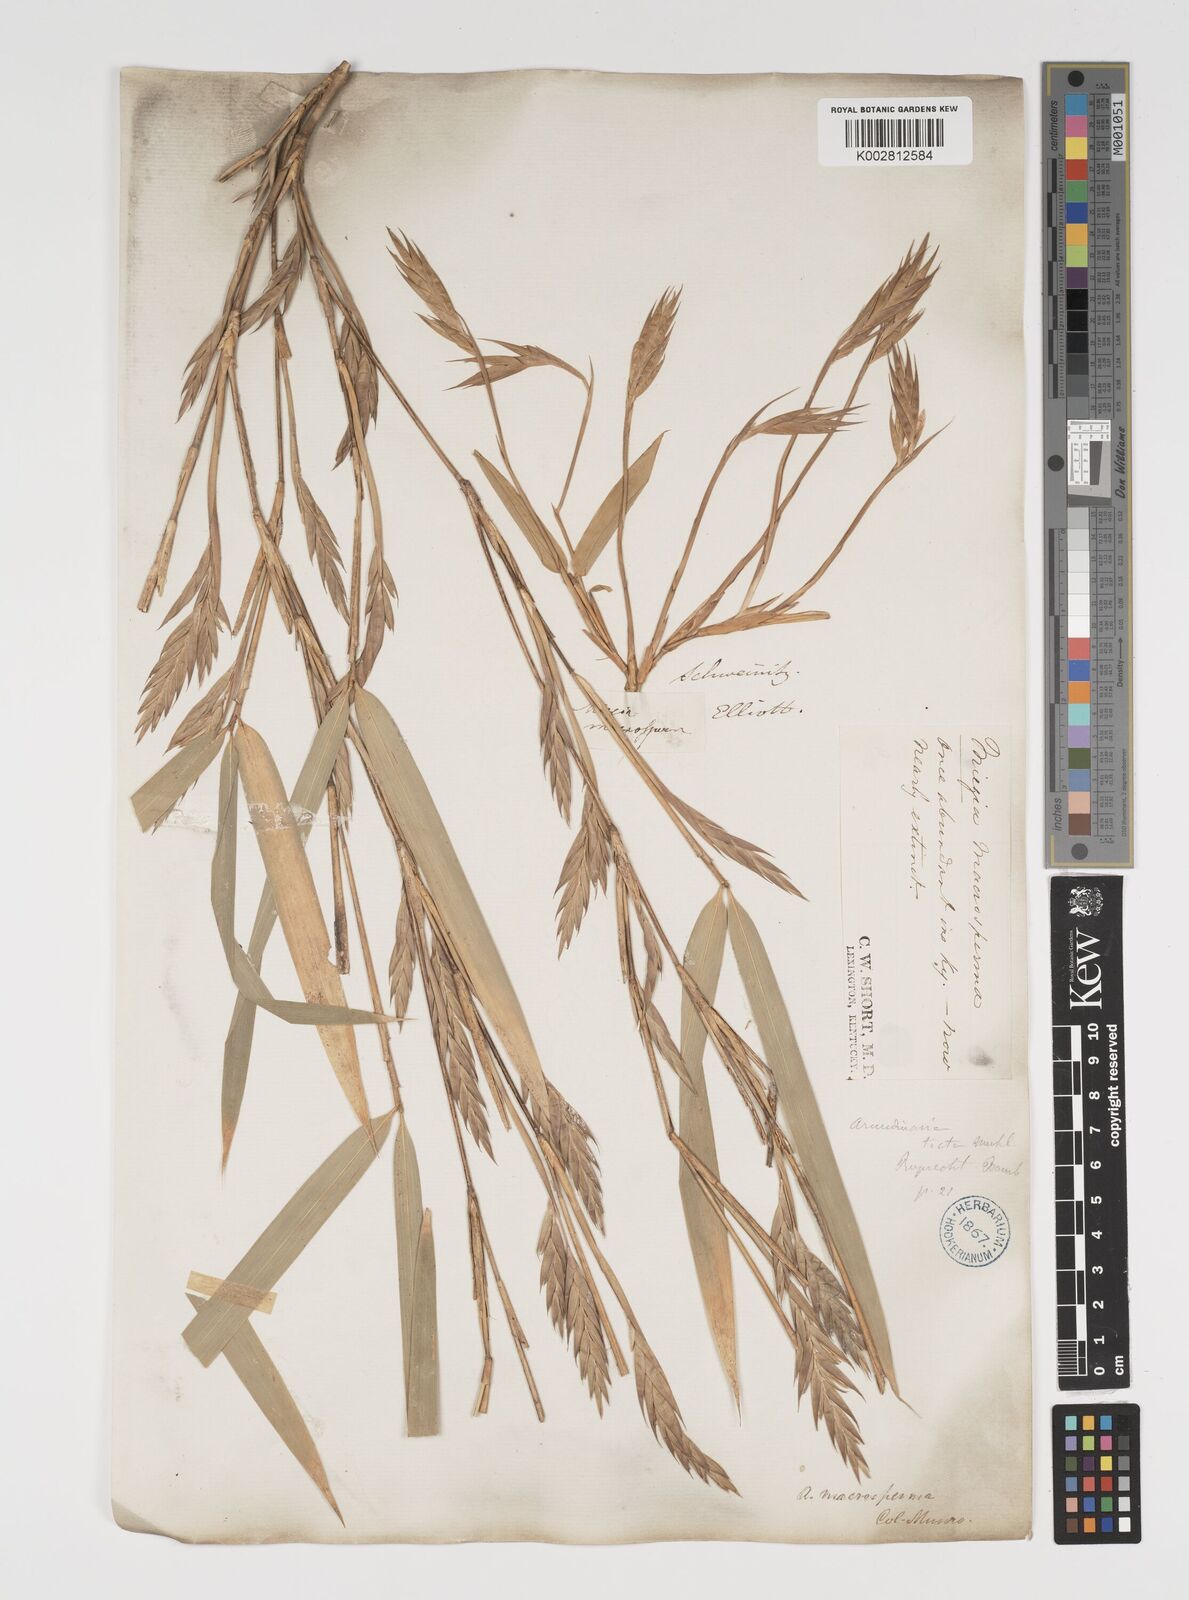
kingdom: Plantae
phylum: Tracheophyta
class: Liliopsida
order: Poales
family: Poaceae
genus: Arundinaria
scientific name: Arundinaria gigantea
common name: Giant cane
